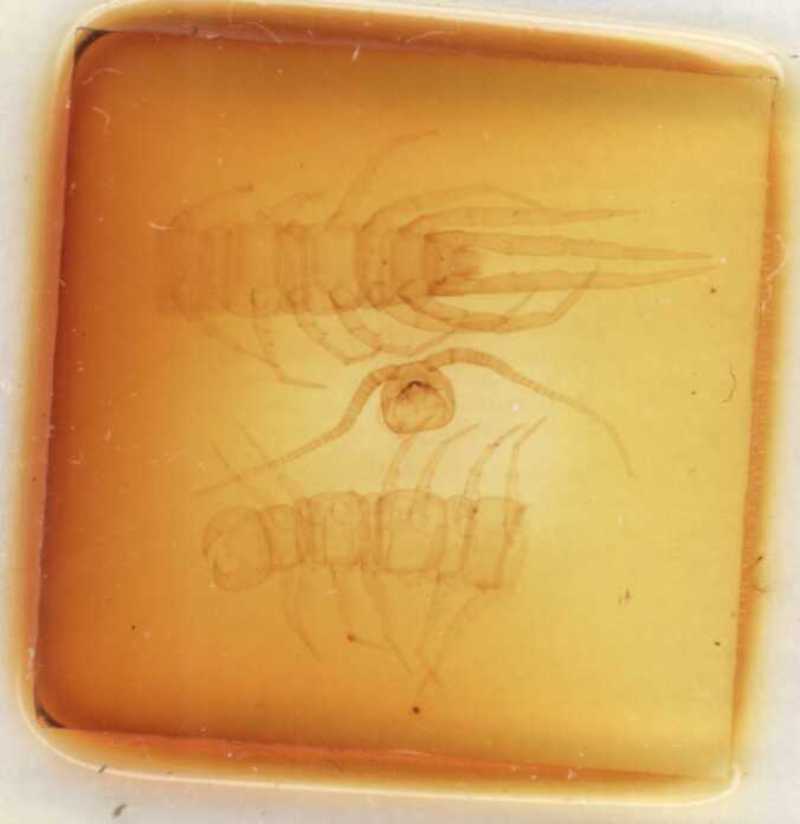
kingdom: Animalia
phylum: Arthropoda
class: Chilopoda
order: Lithobiomorpha
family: Lithobiidae
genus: Lithobius
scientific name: Lithobius borealis
